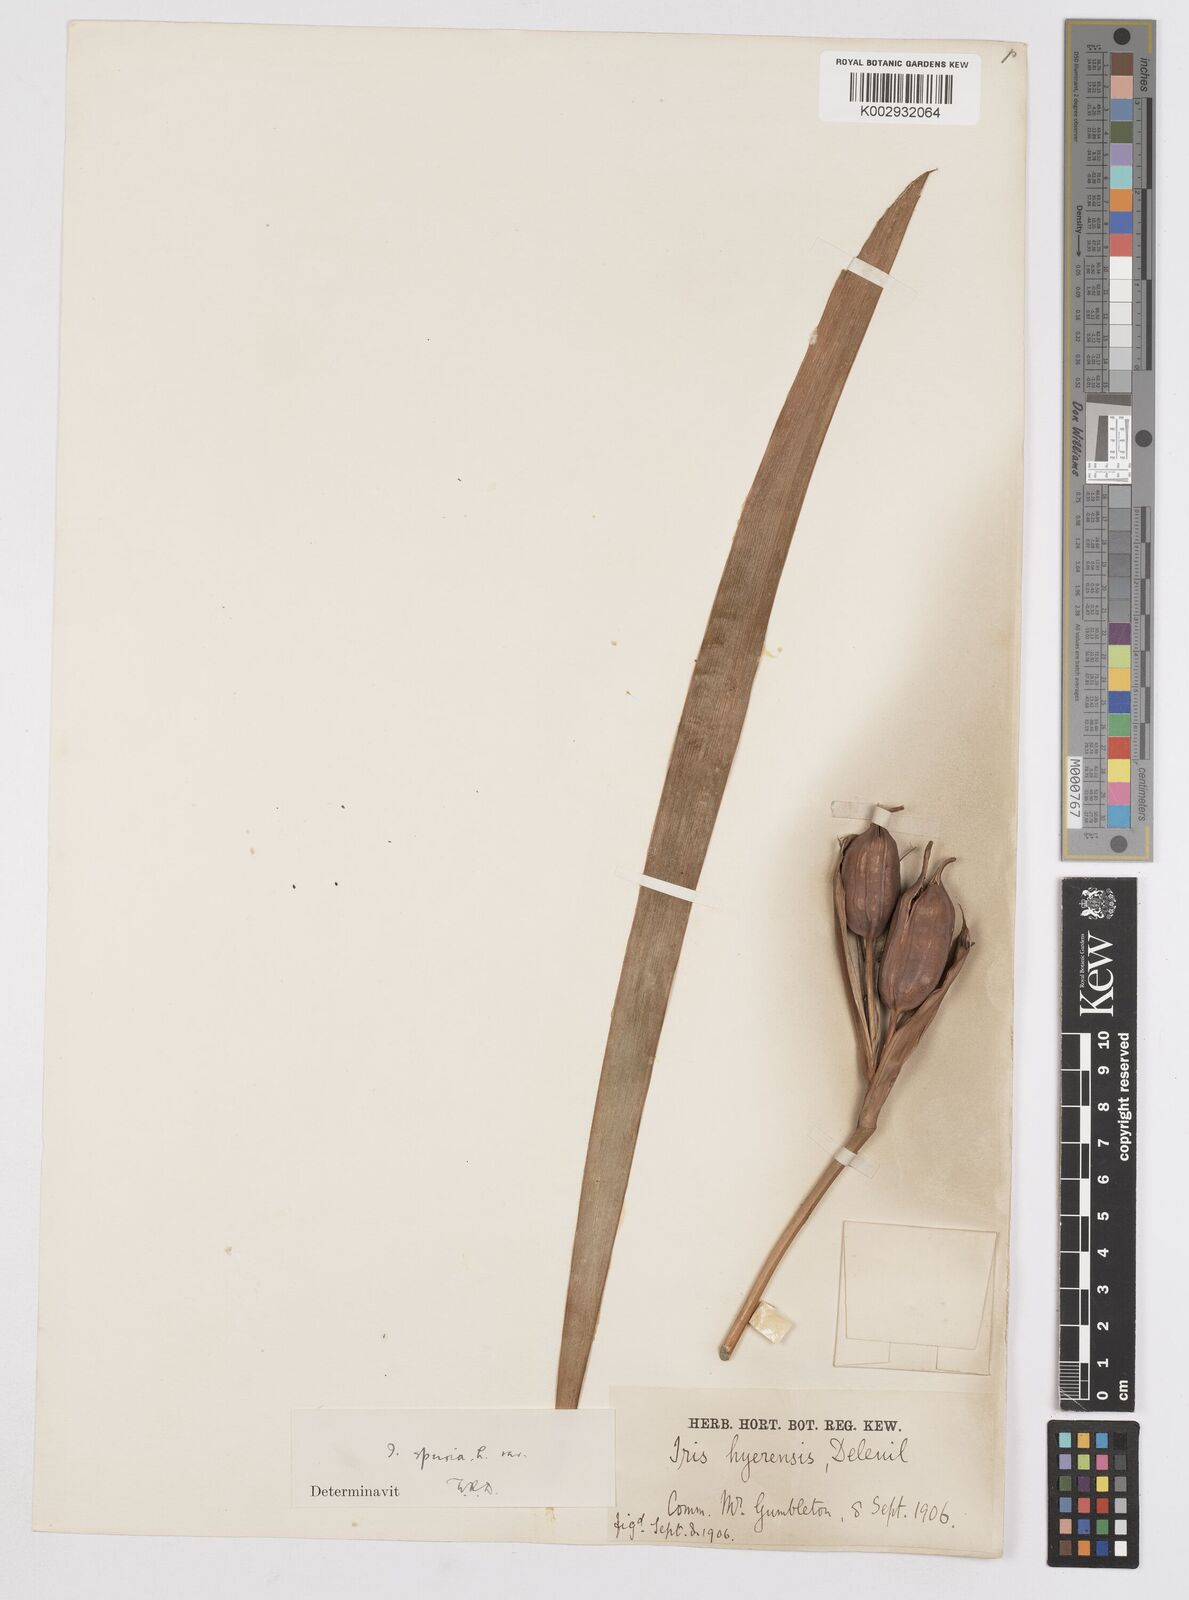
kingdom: Plantae
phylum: Tracheophyta
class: Liliopsida
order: Asparagales
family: Iridaceae
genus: Iris
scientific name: Iris
